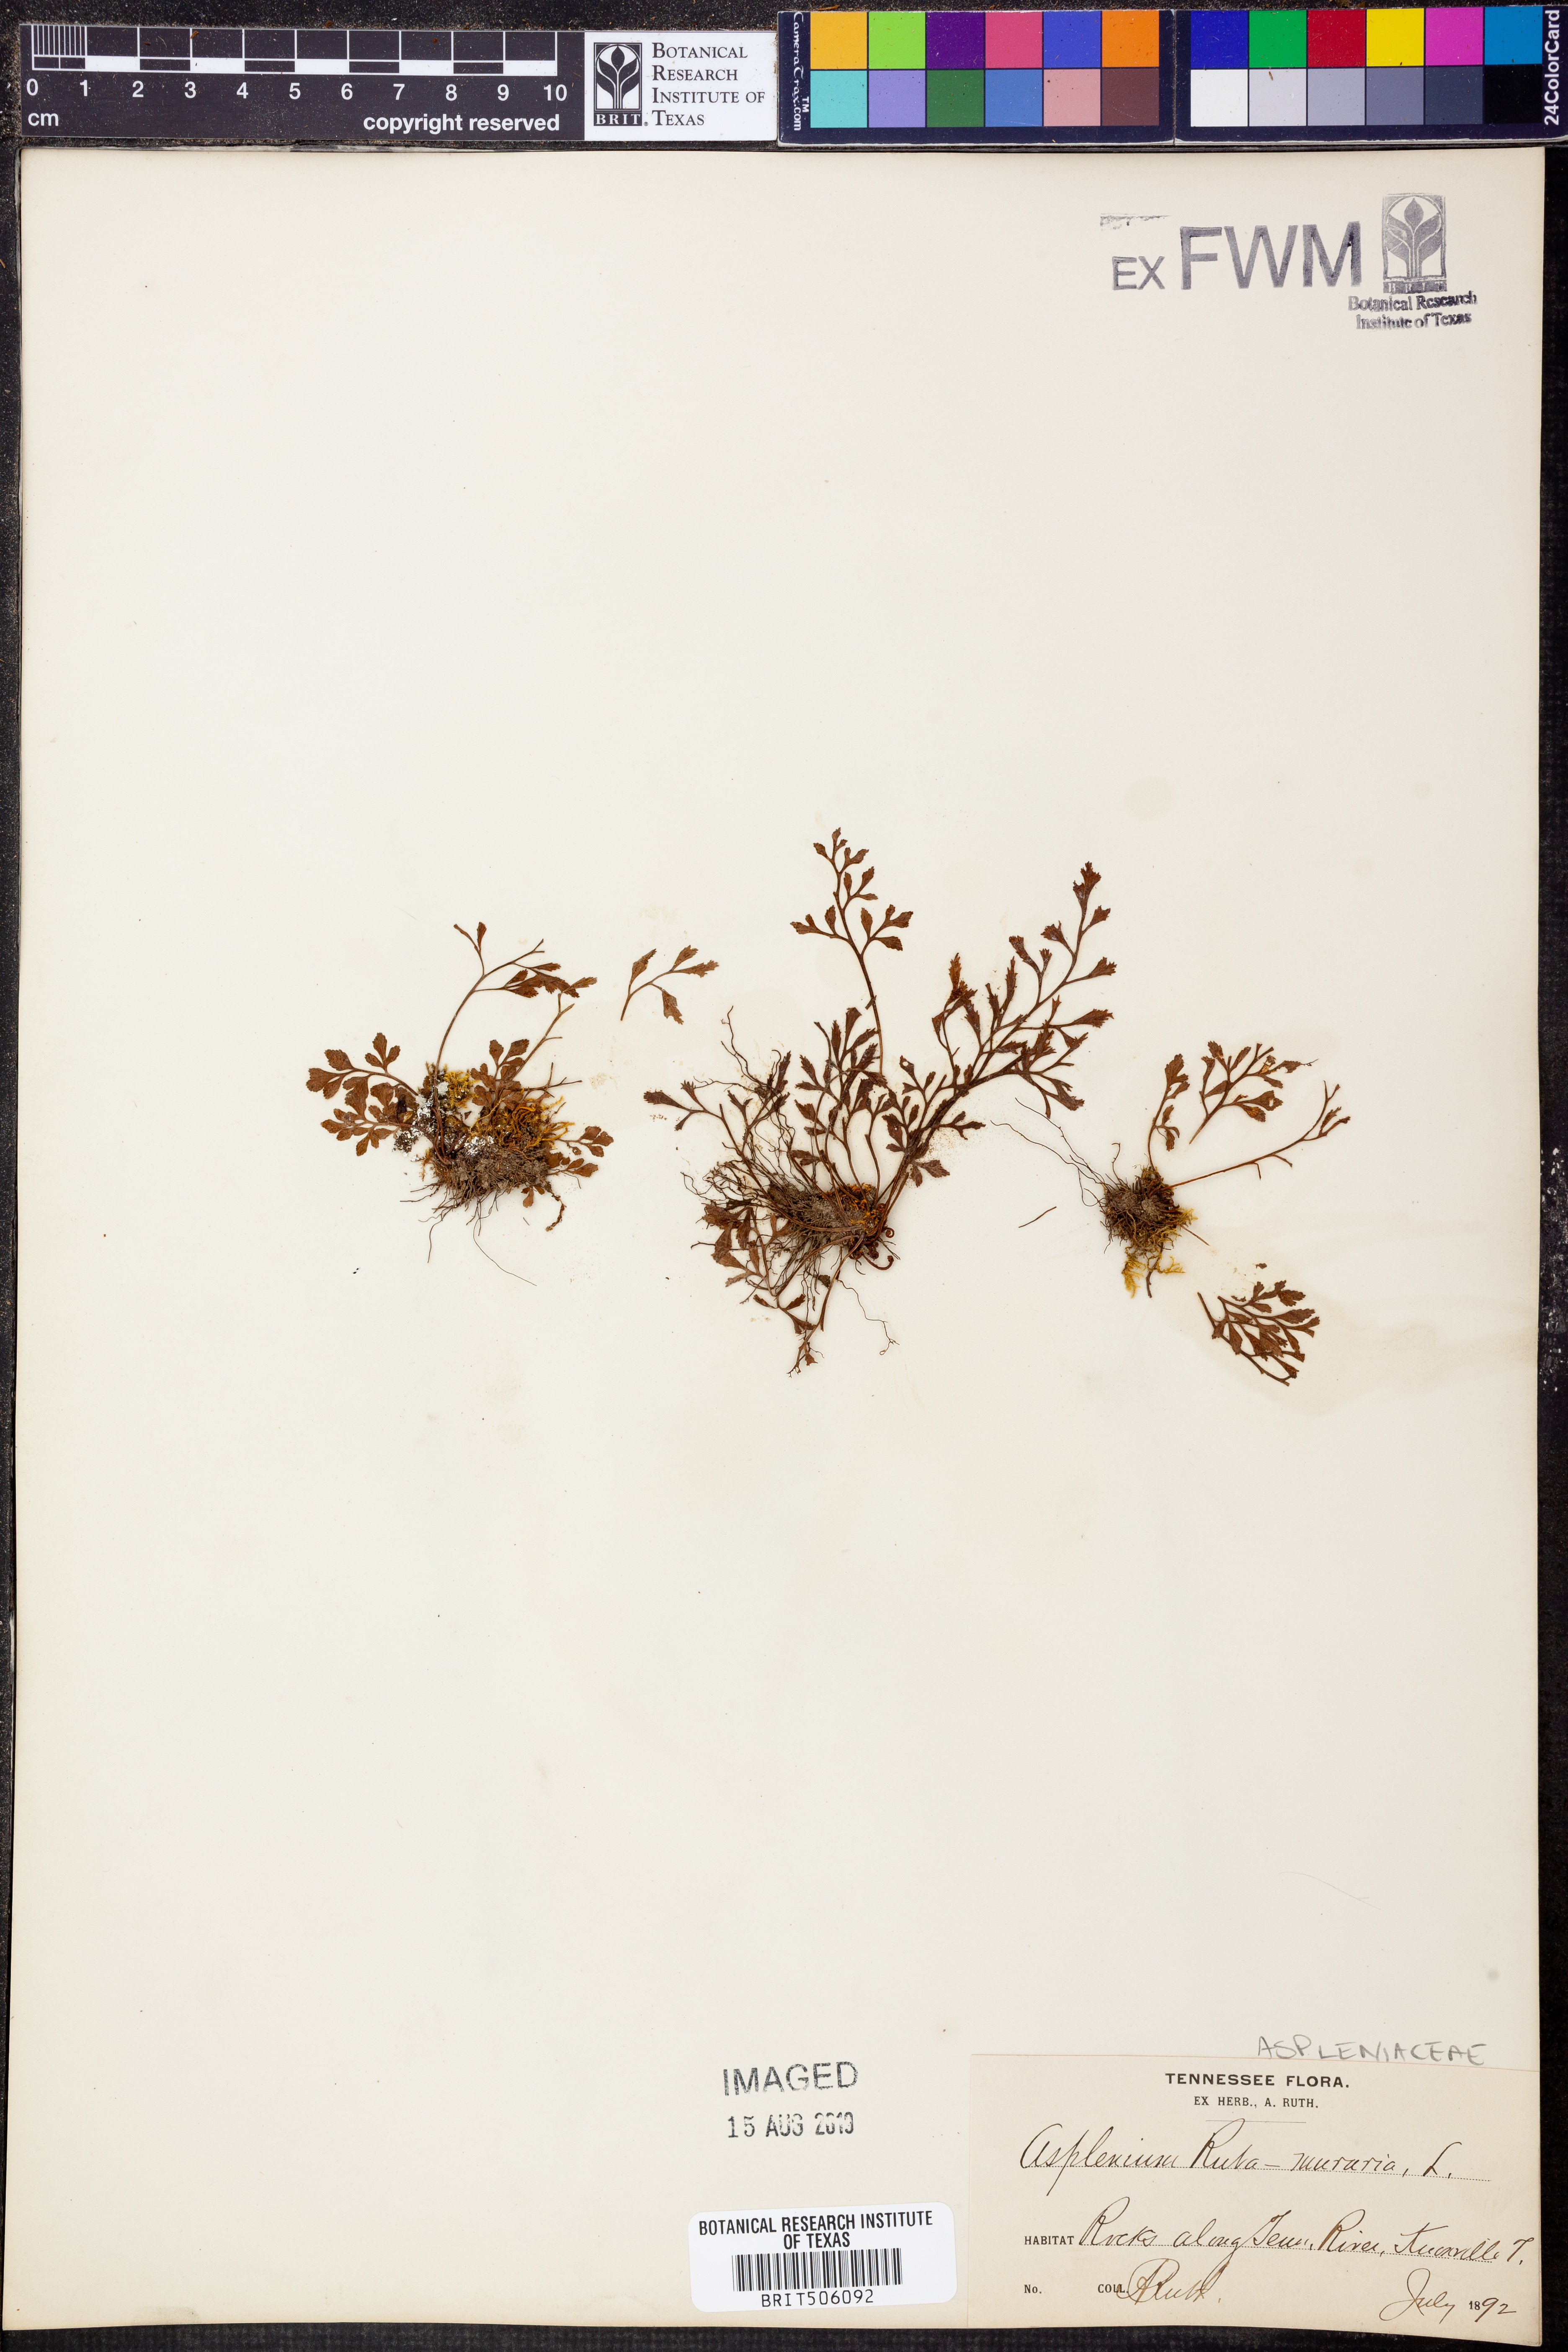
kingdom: Plantae
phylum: Tracheophyta
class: Polypodiopsida
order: Polypodiales
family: Aspleniaceae
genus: Asplenium
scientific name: Asplenium ruta-muraria
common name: Wall-rue
